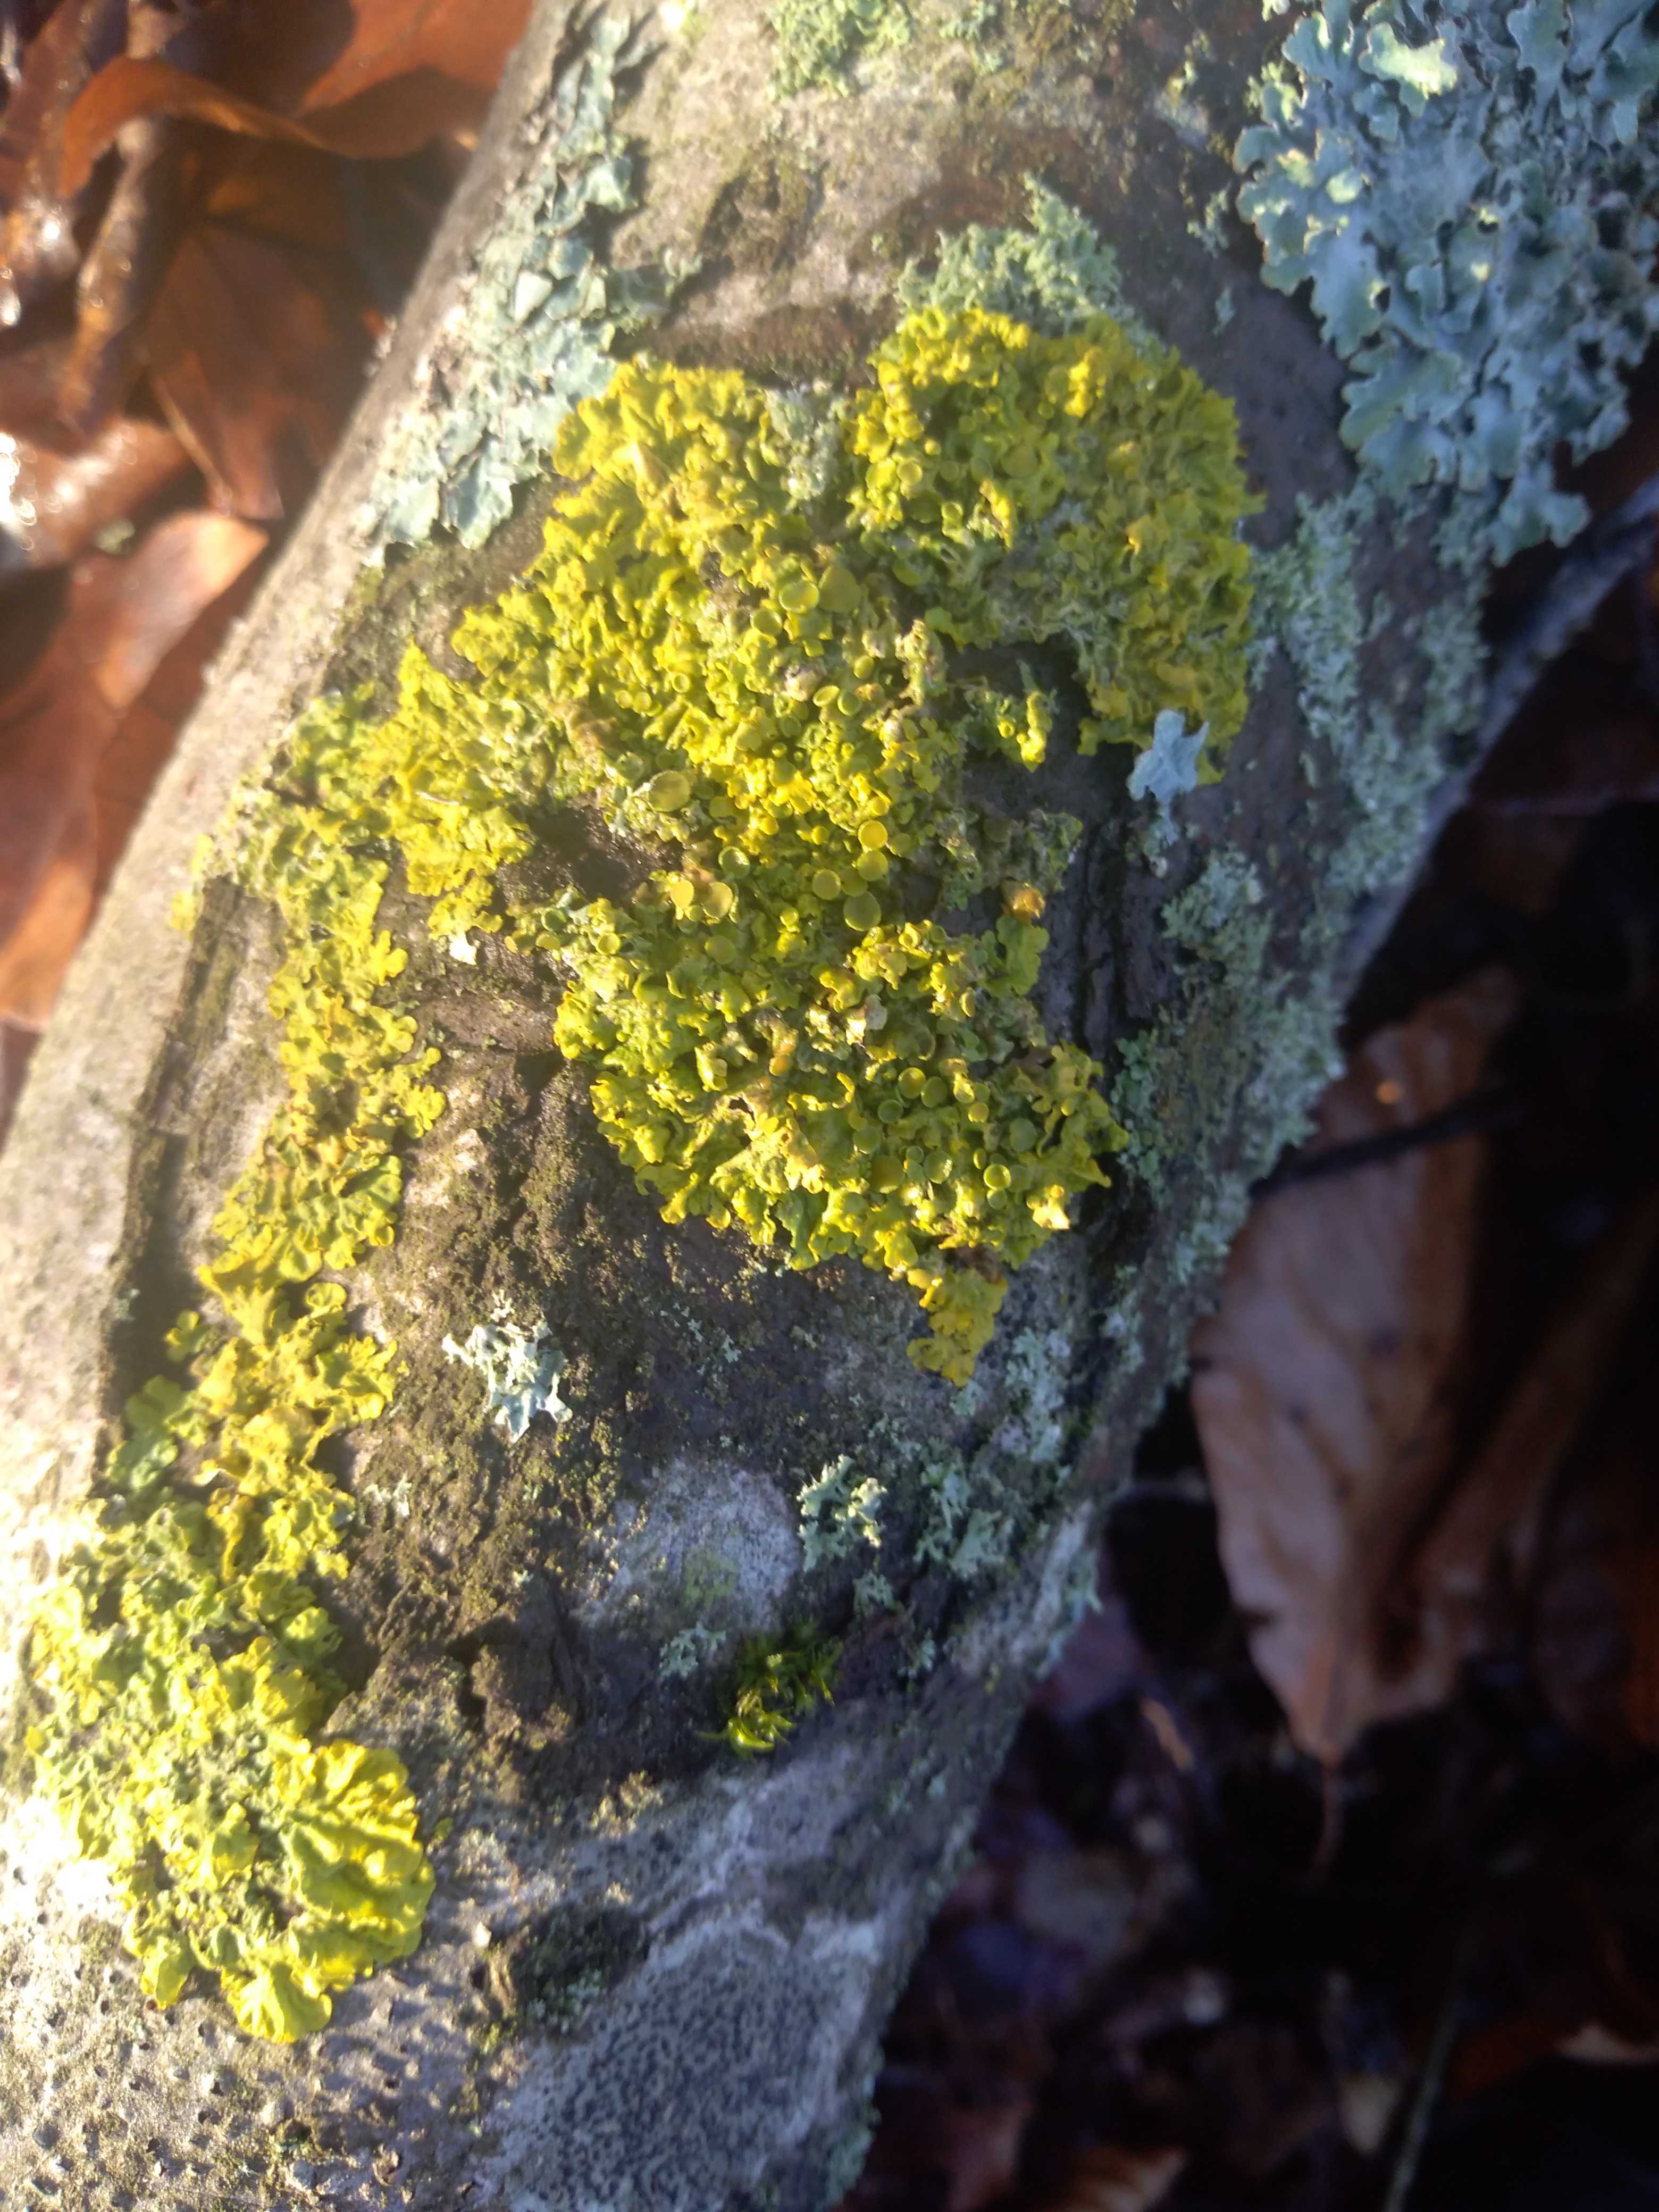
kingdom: Fungi
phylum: Ascomycota
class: Lecanoromycetes
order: Teloschistales
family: Teloschistaceae
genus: Xanthoria
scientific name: Xanthoria parietina
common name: almindelig væggelav
